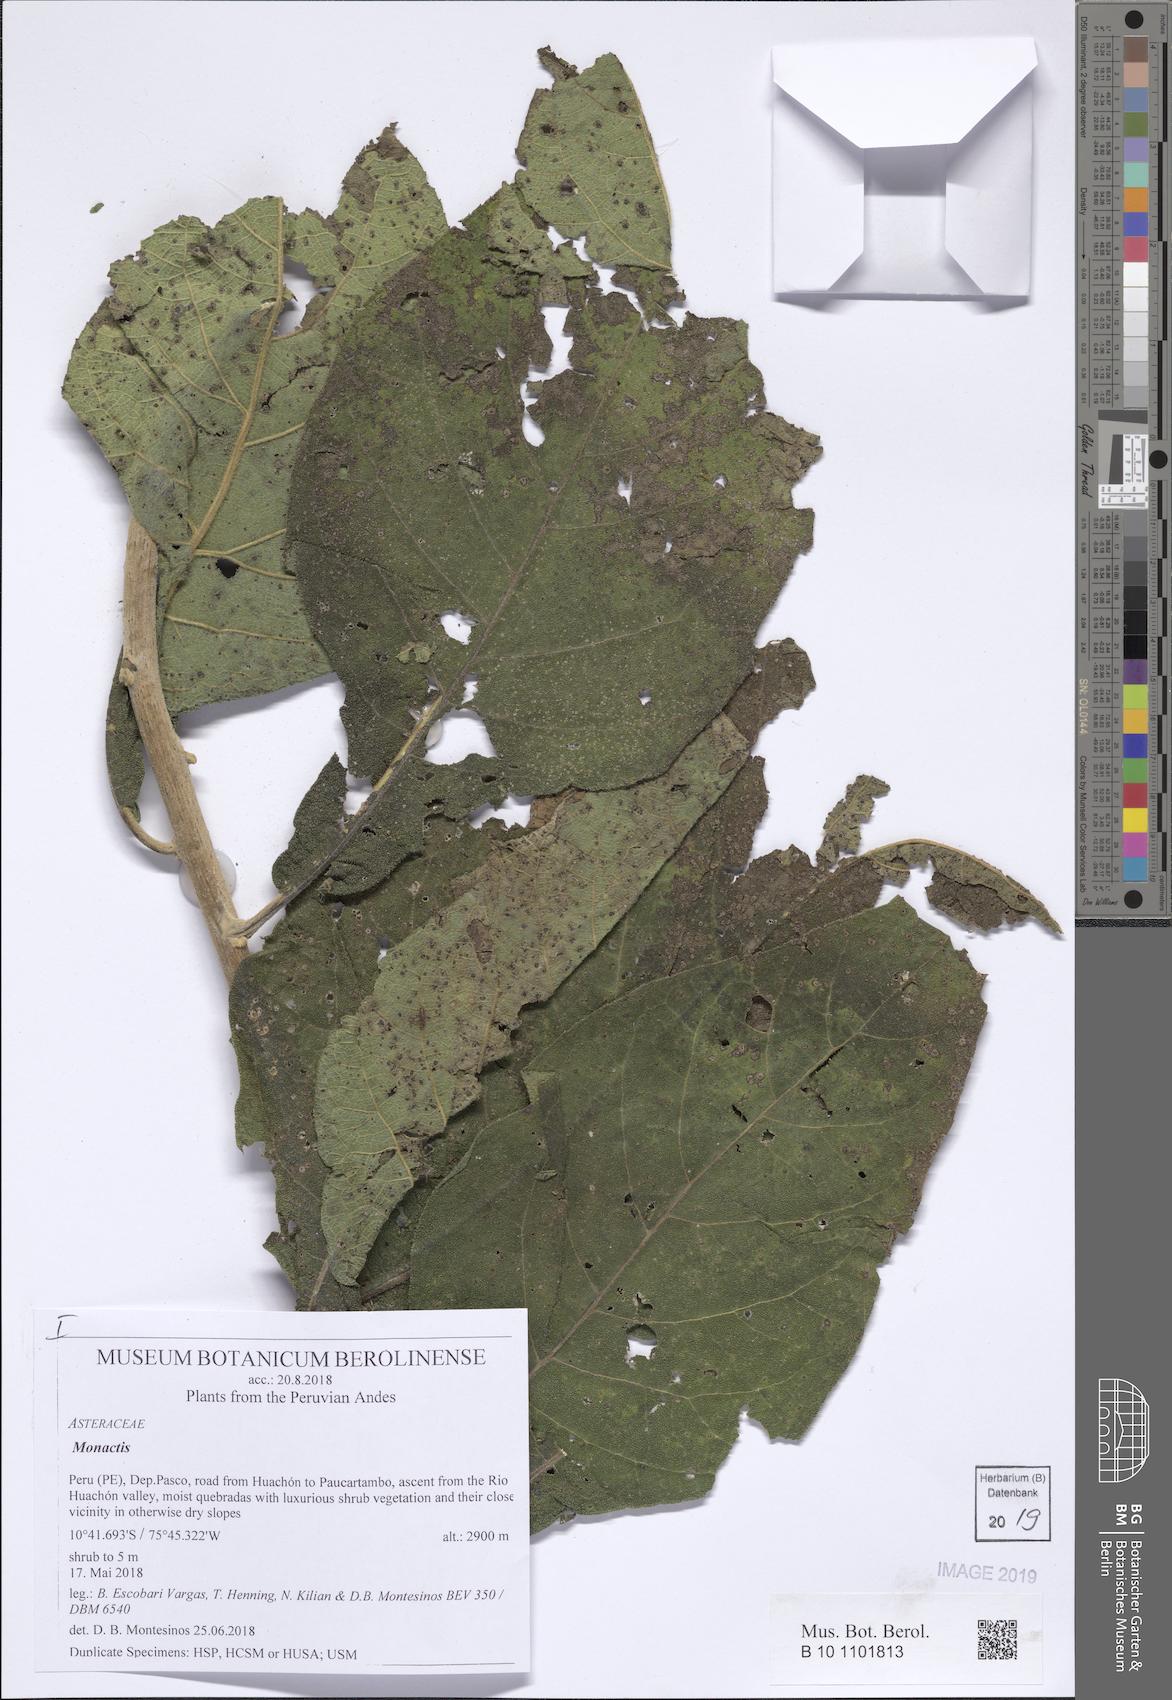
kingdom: Plantae
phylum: Tracheophyta
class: Magnoliopsida
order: Asterales
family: Asteraceae
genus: Monactis
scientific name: Monactis rhombifolia
